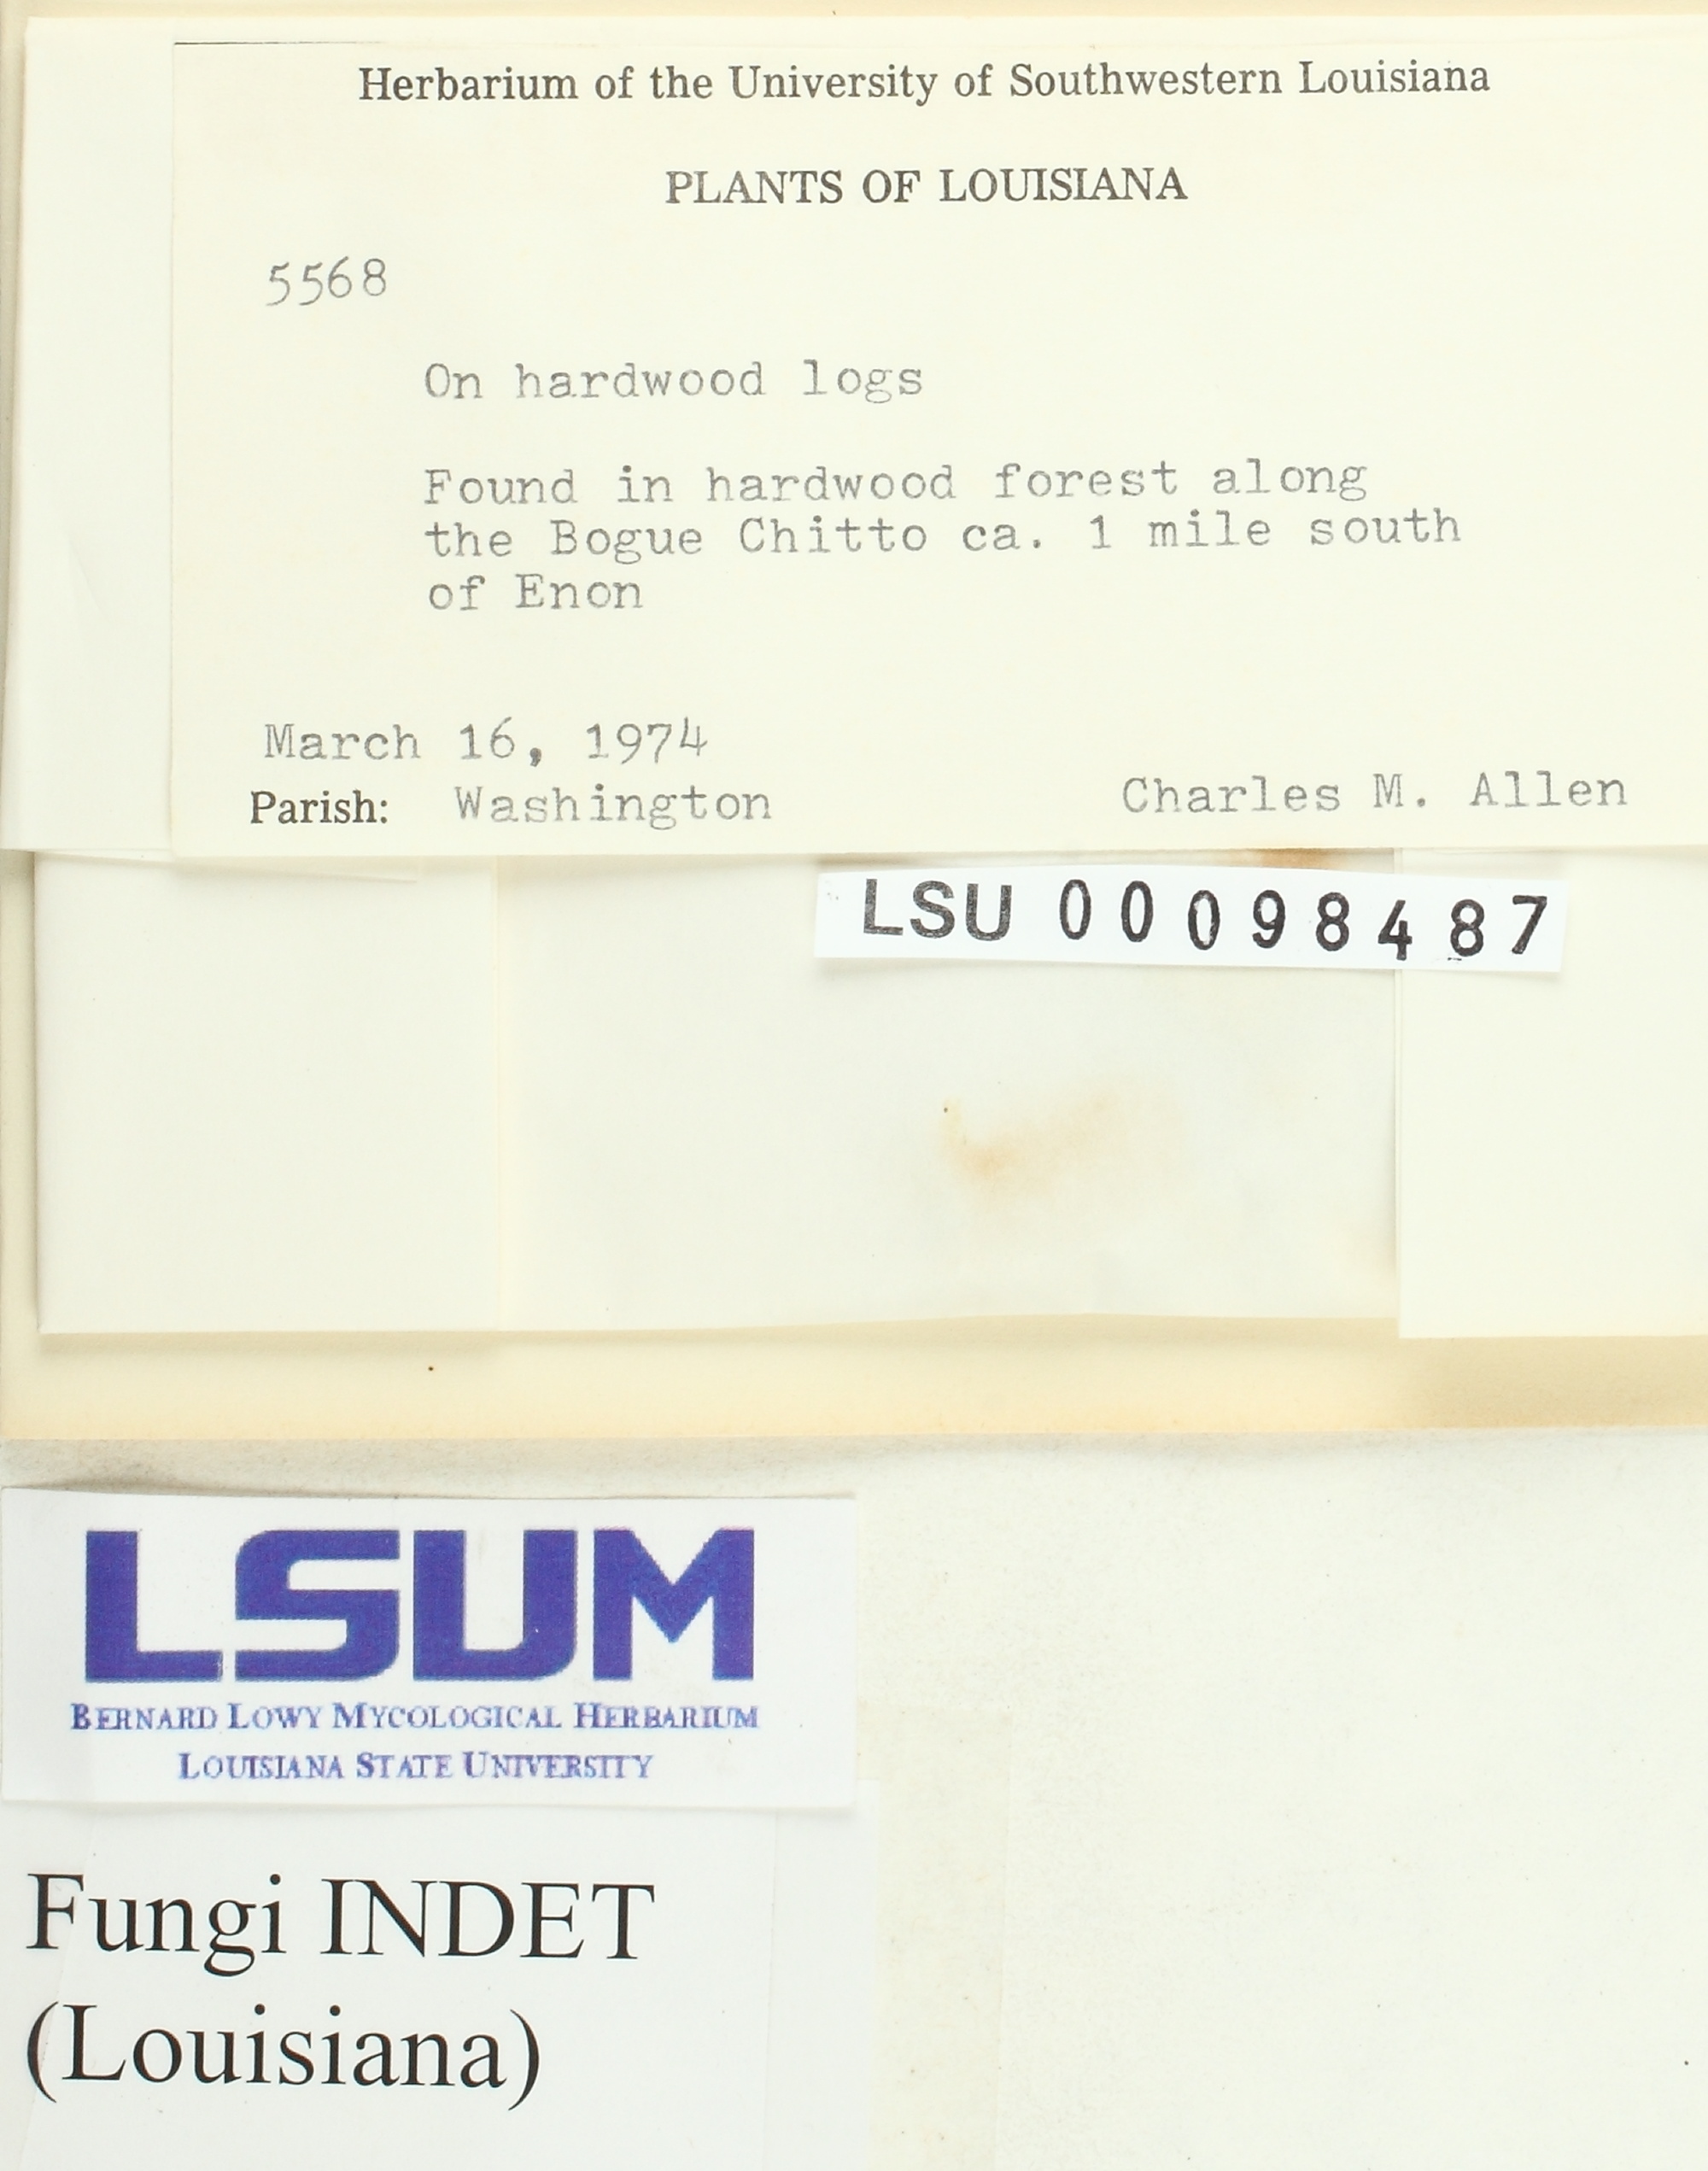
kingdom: Fungi
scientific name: Fungi
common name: Fungi
